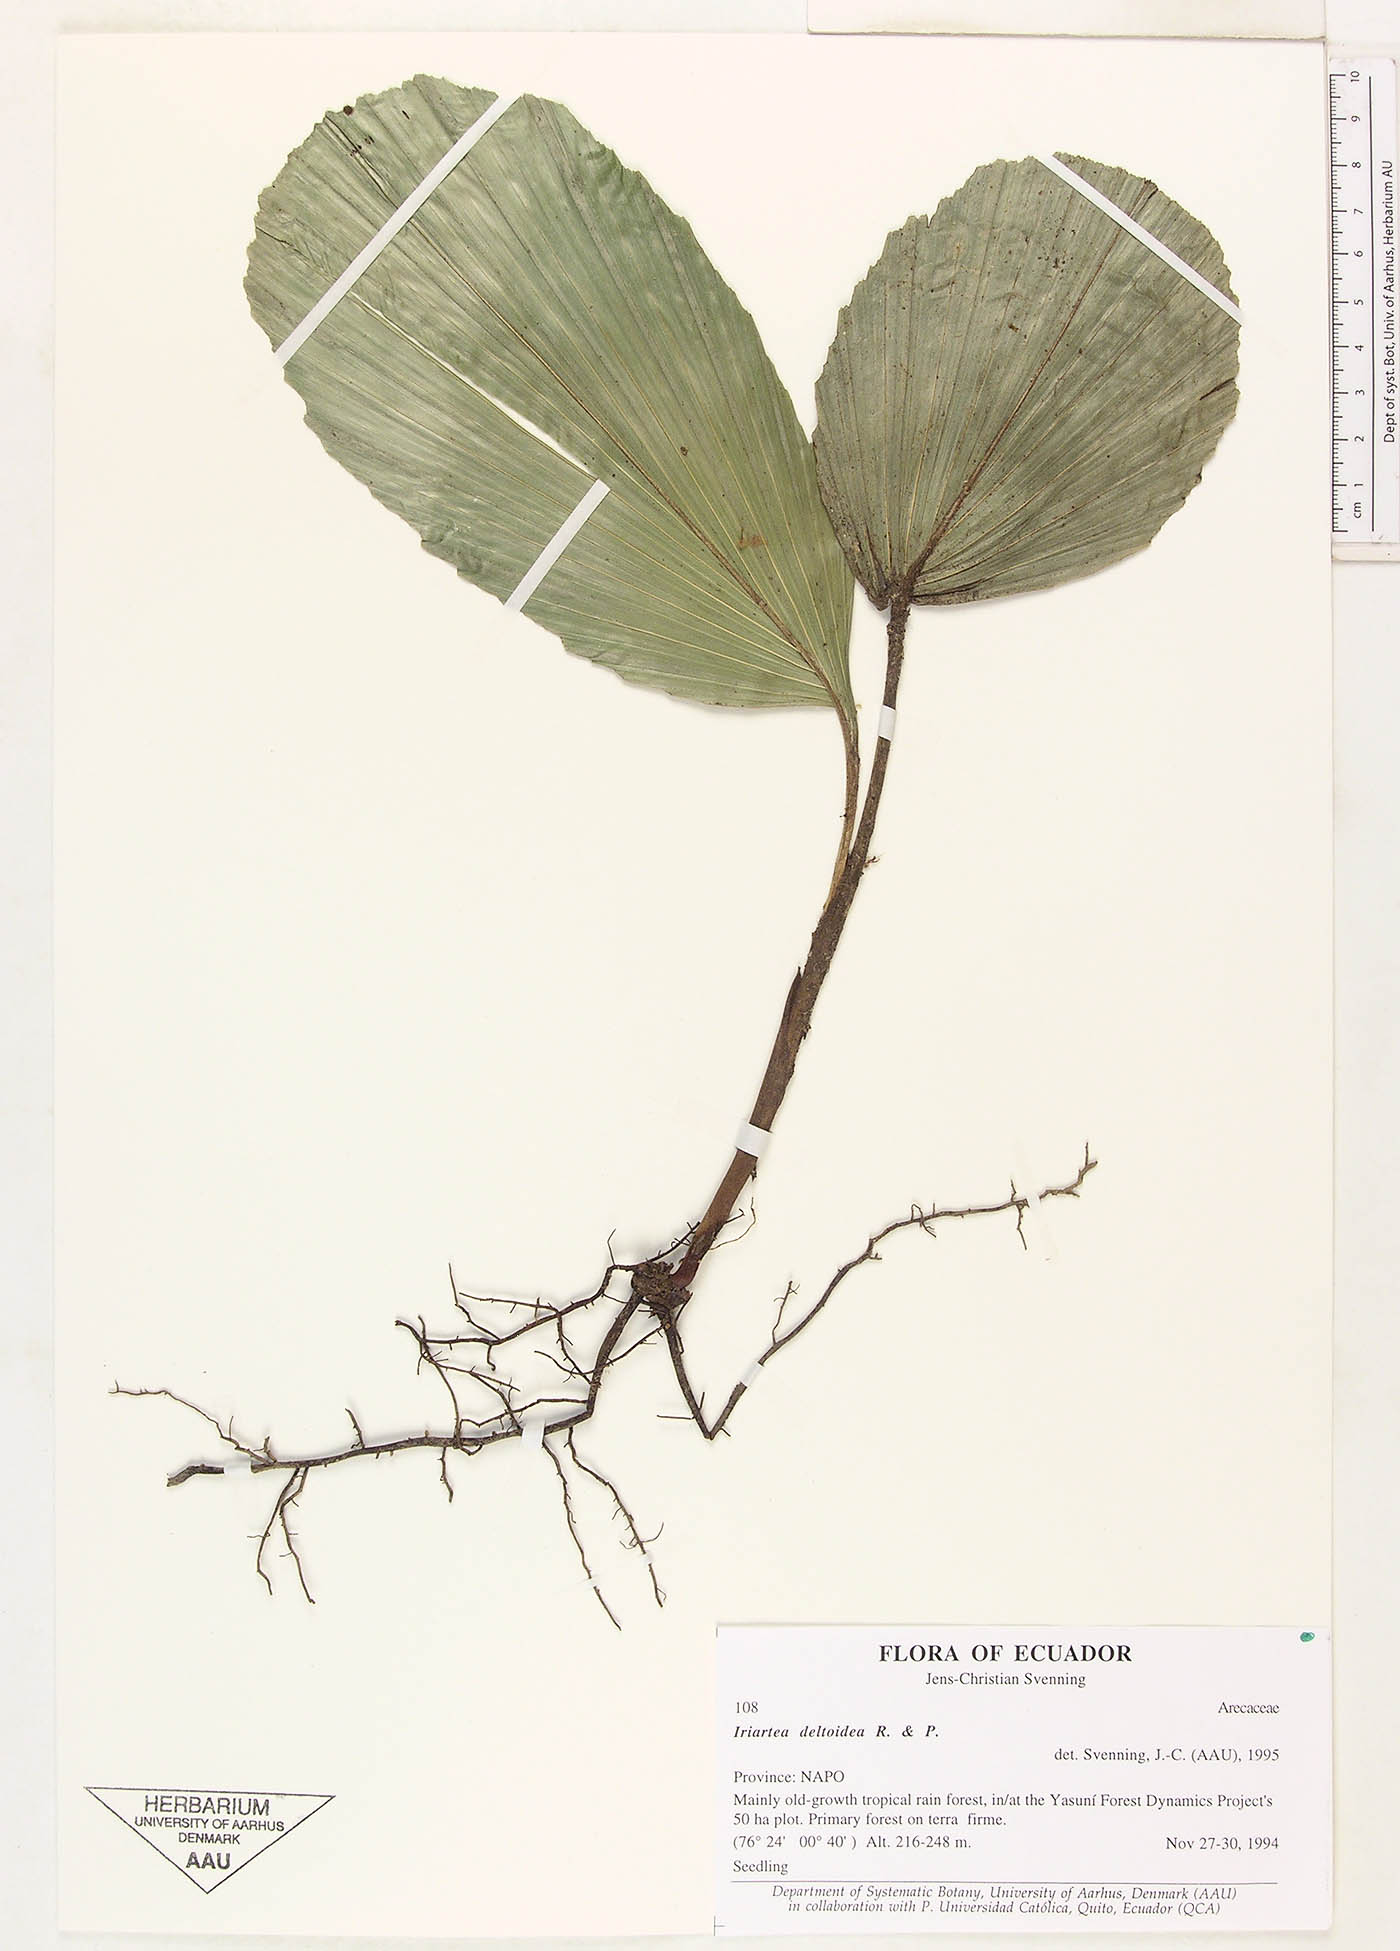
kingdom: Plantae
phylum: Tracheophyta
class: Liliopsida
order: Arecales
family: Arecaceae
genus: Iriartea
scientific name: Iriartea deltoidea
